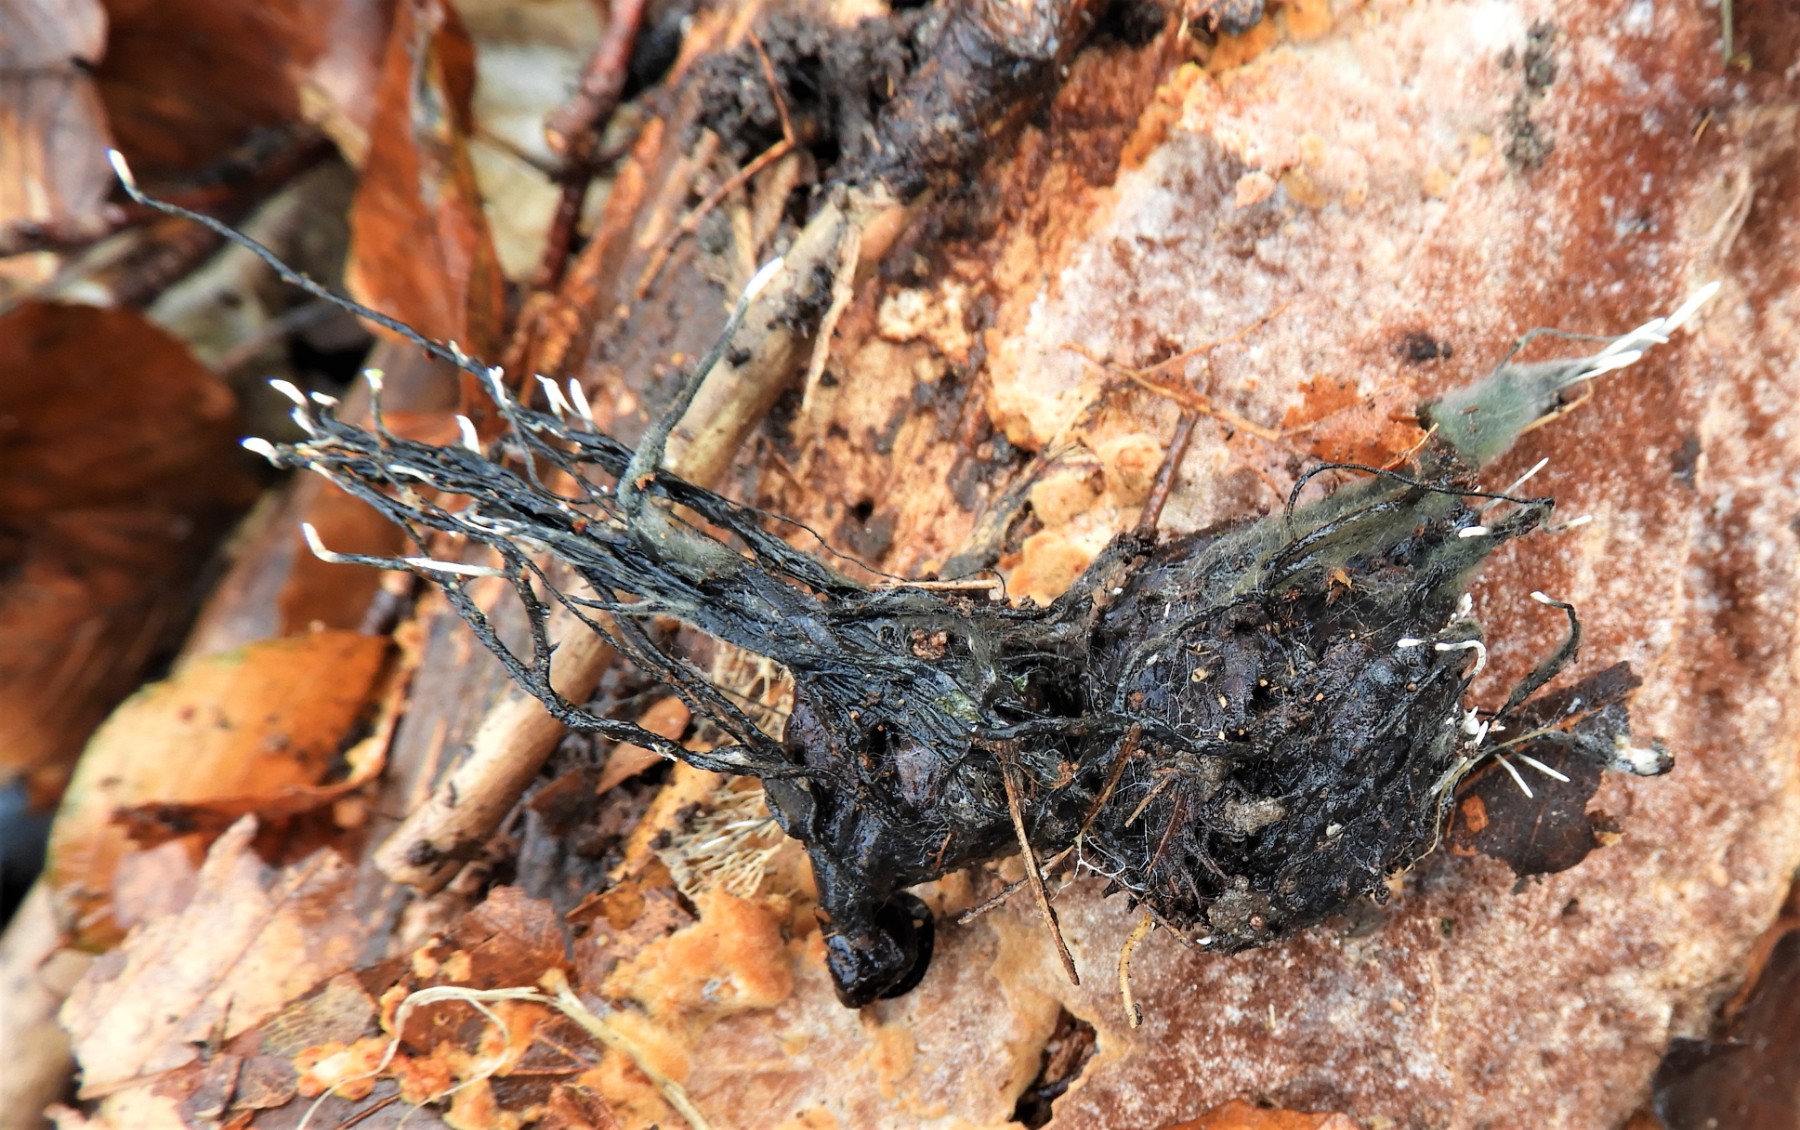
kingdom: Fungi
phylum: Ascomycota
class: Sordariomycetes
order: Xylariales
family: Xylariaceae
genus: Xylaria
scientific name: Xylaria carpophila
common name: bogskål-stødsvamp
